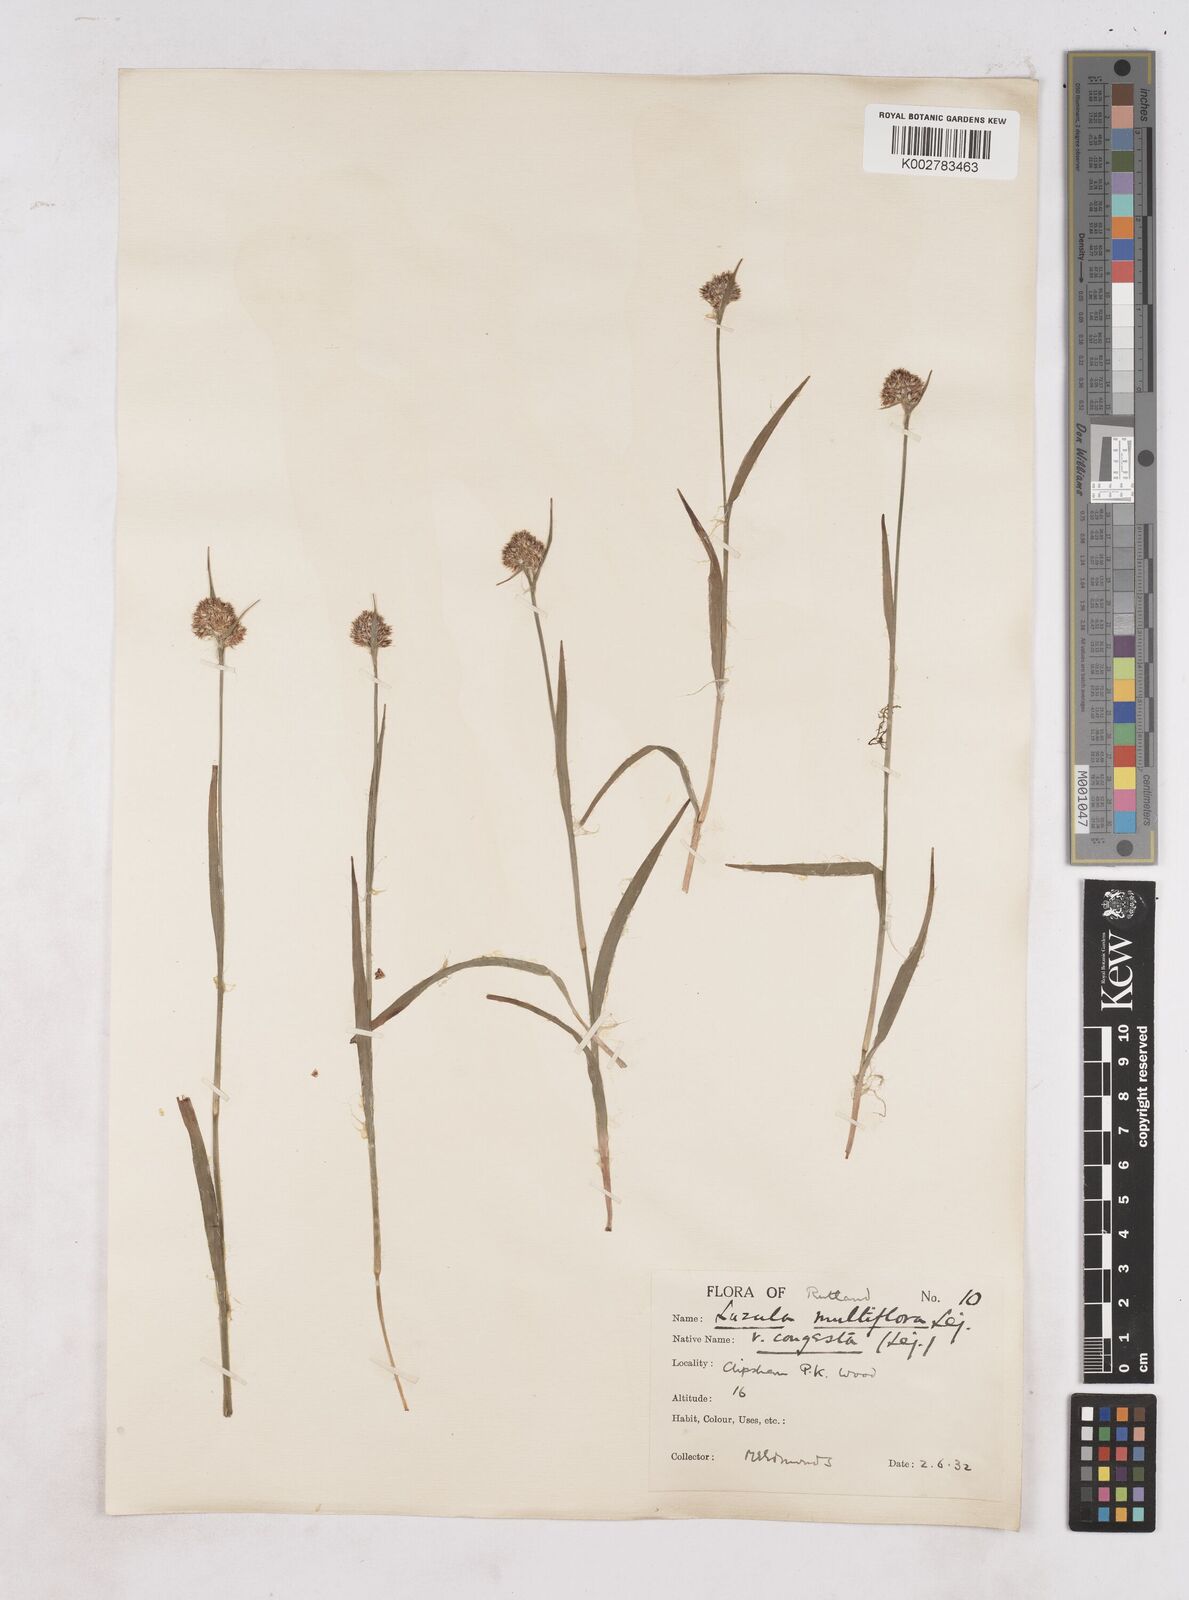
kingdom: Plantae
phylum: Tracheophyta
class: Liliopsida
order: Poales
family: Juncaceae
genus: Luzula
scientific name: Luzula campestris
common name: Field wood-rush
